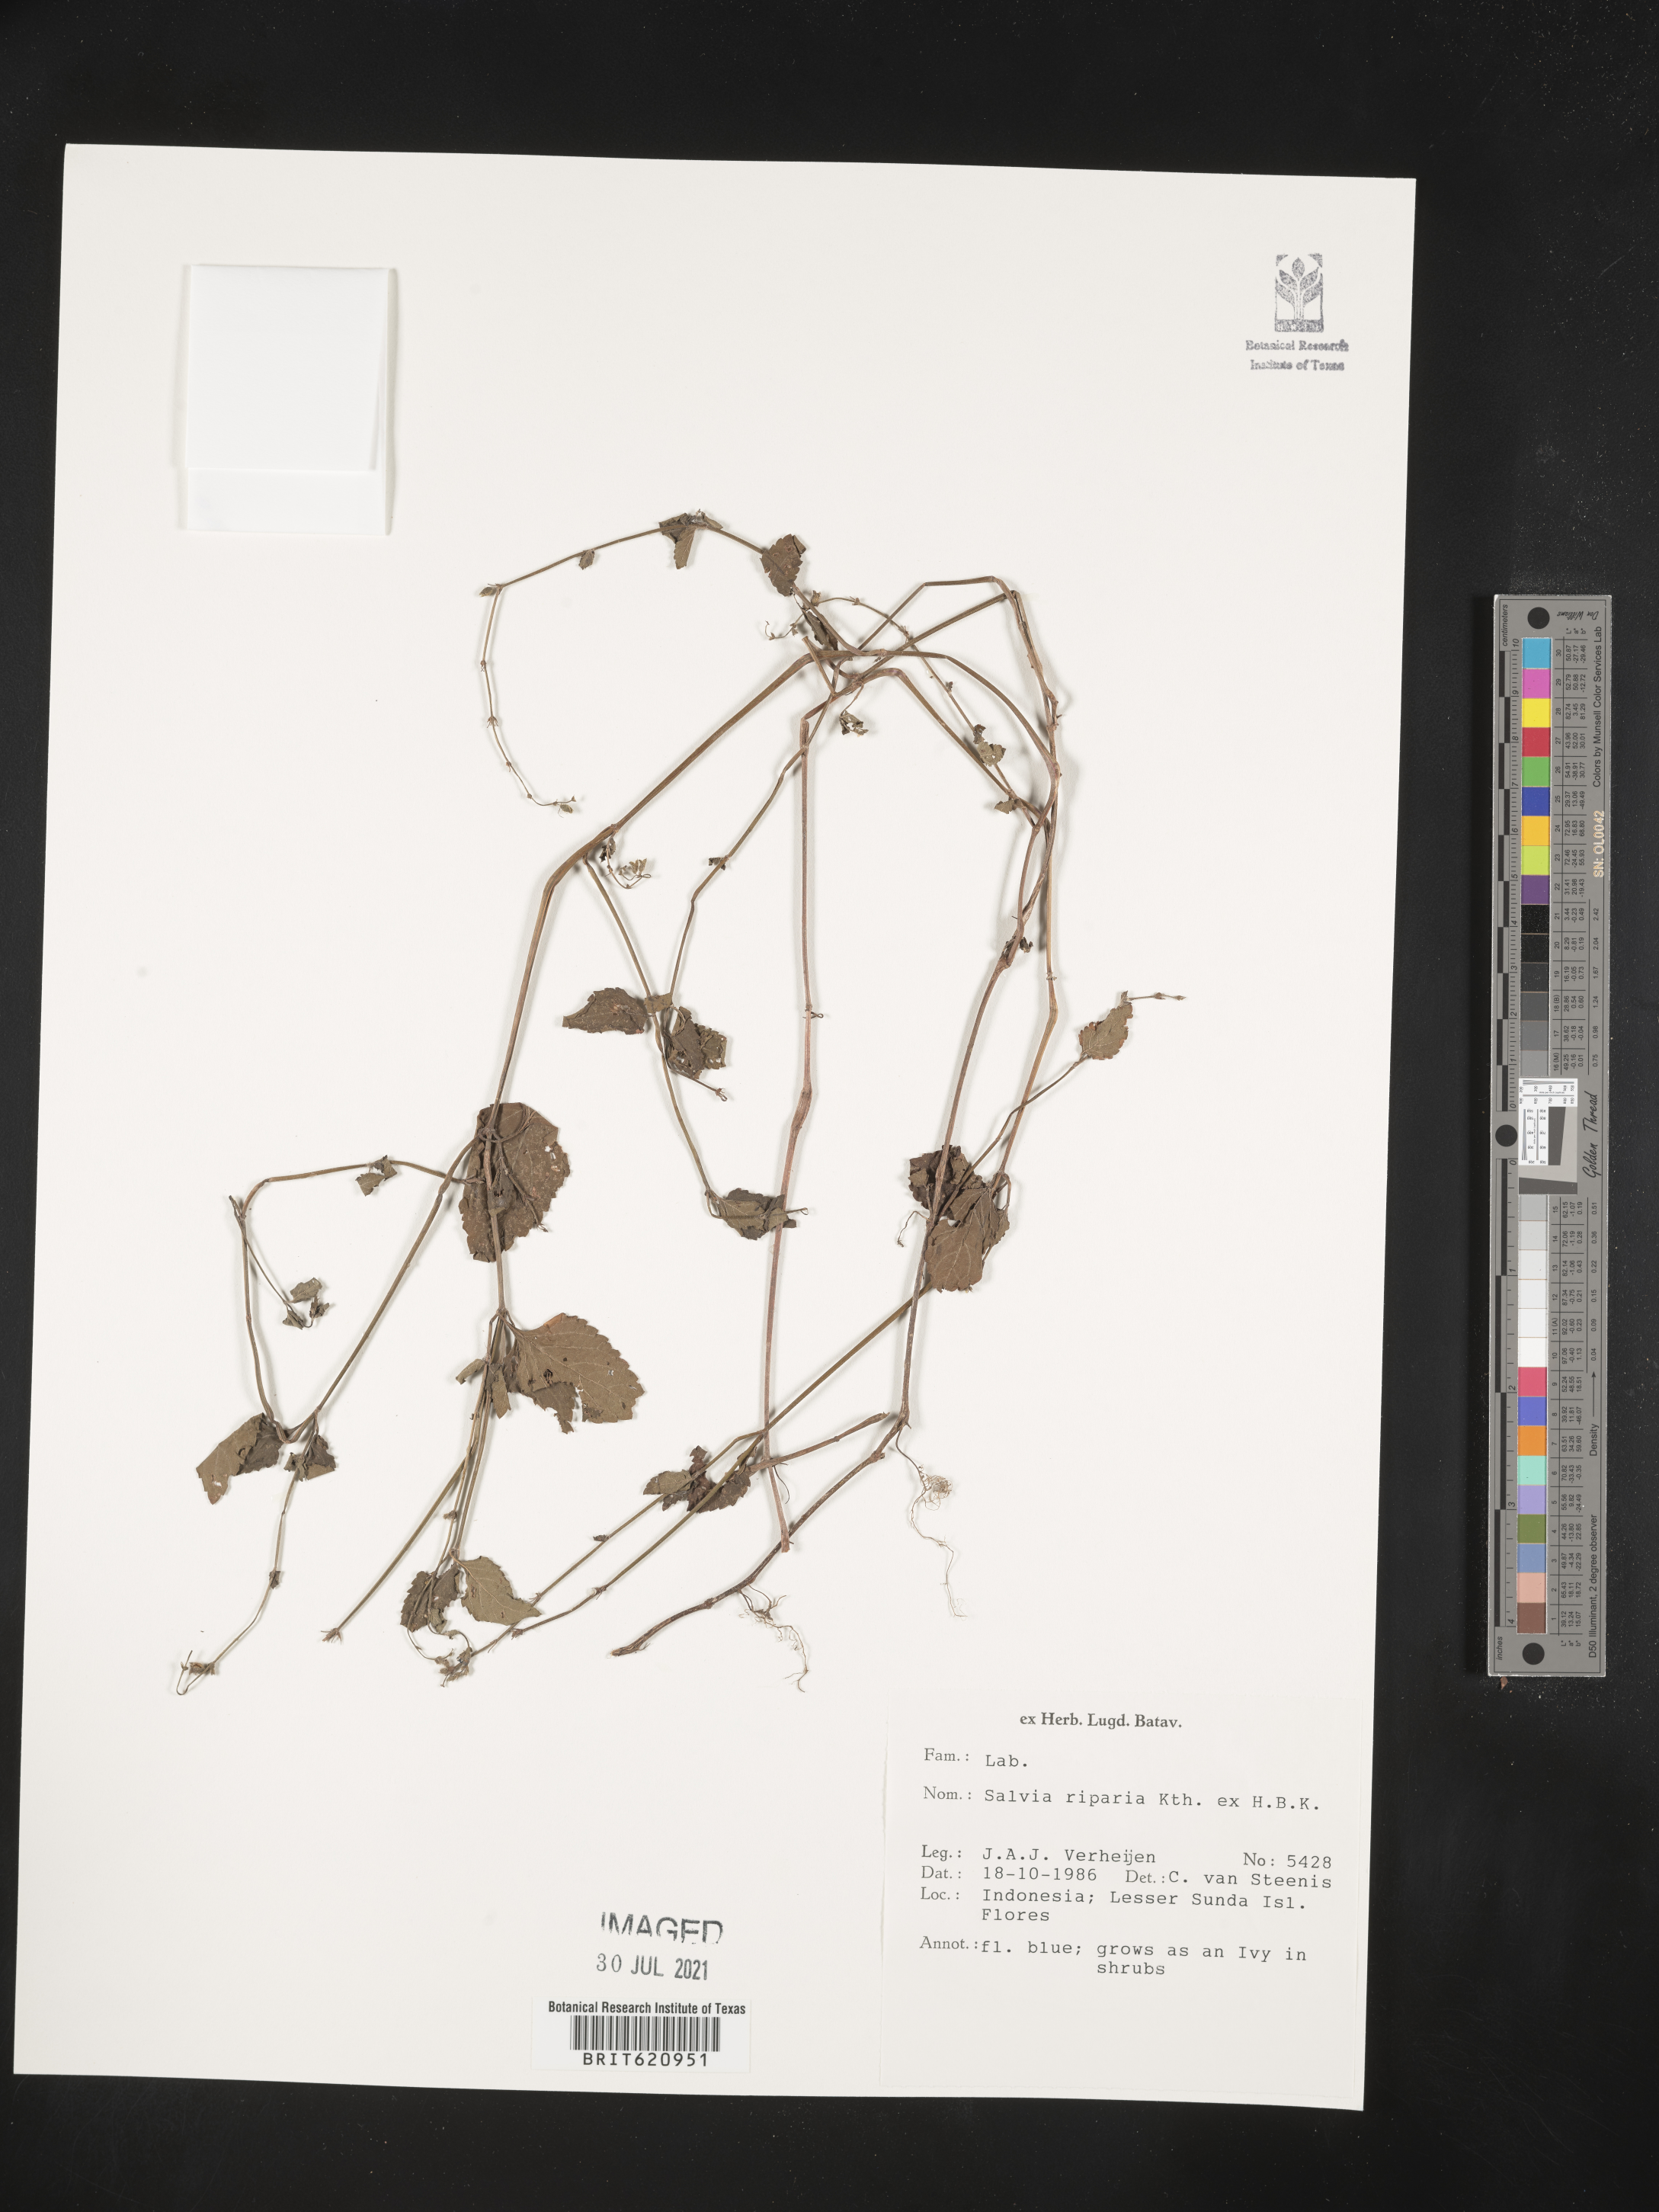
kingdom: Plantae
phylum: Tracheophyta
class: Magnoliopsida
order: Lamiales
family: Lamiaceae
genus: Salvia
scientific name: Salvia misella
